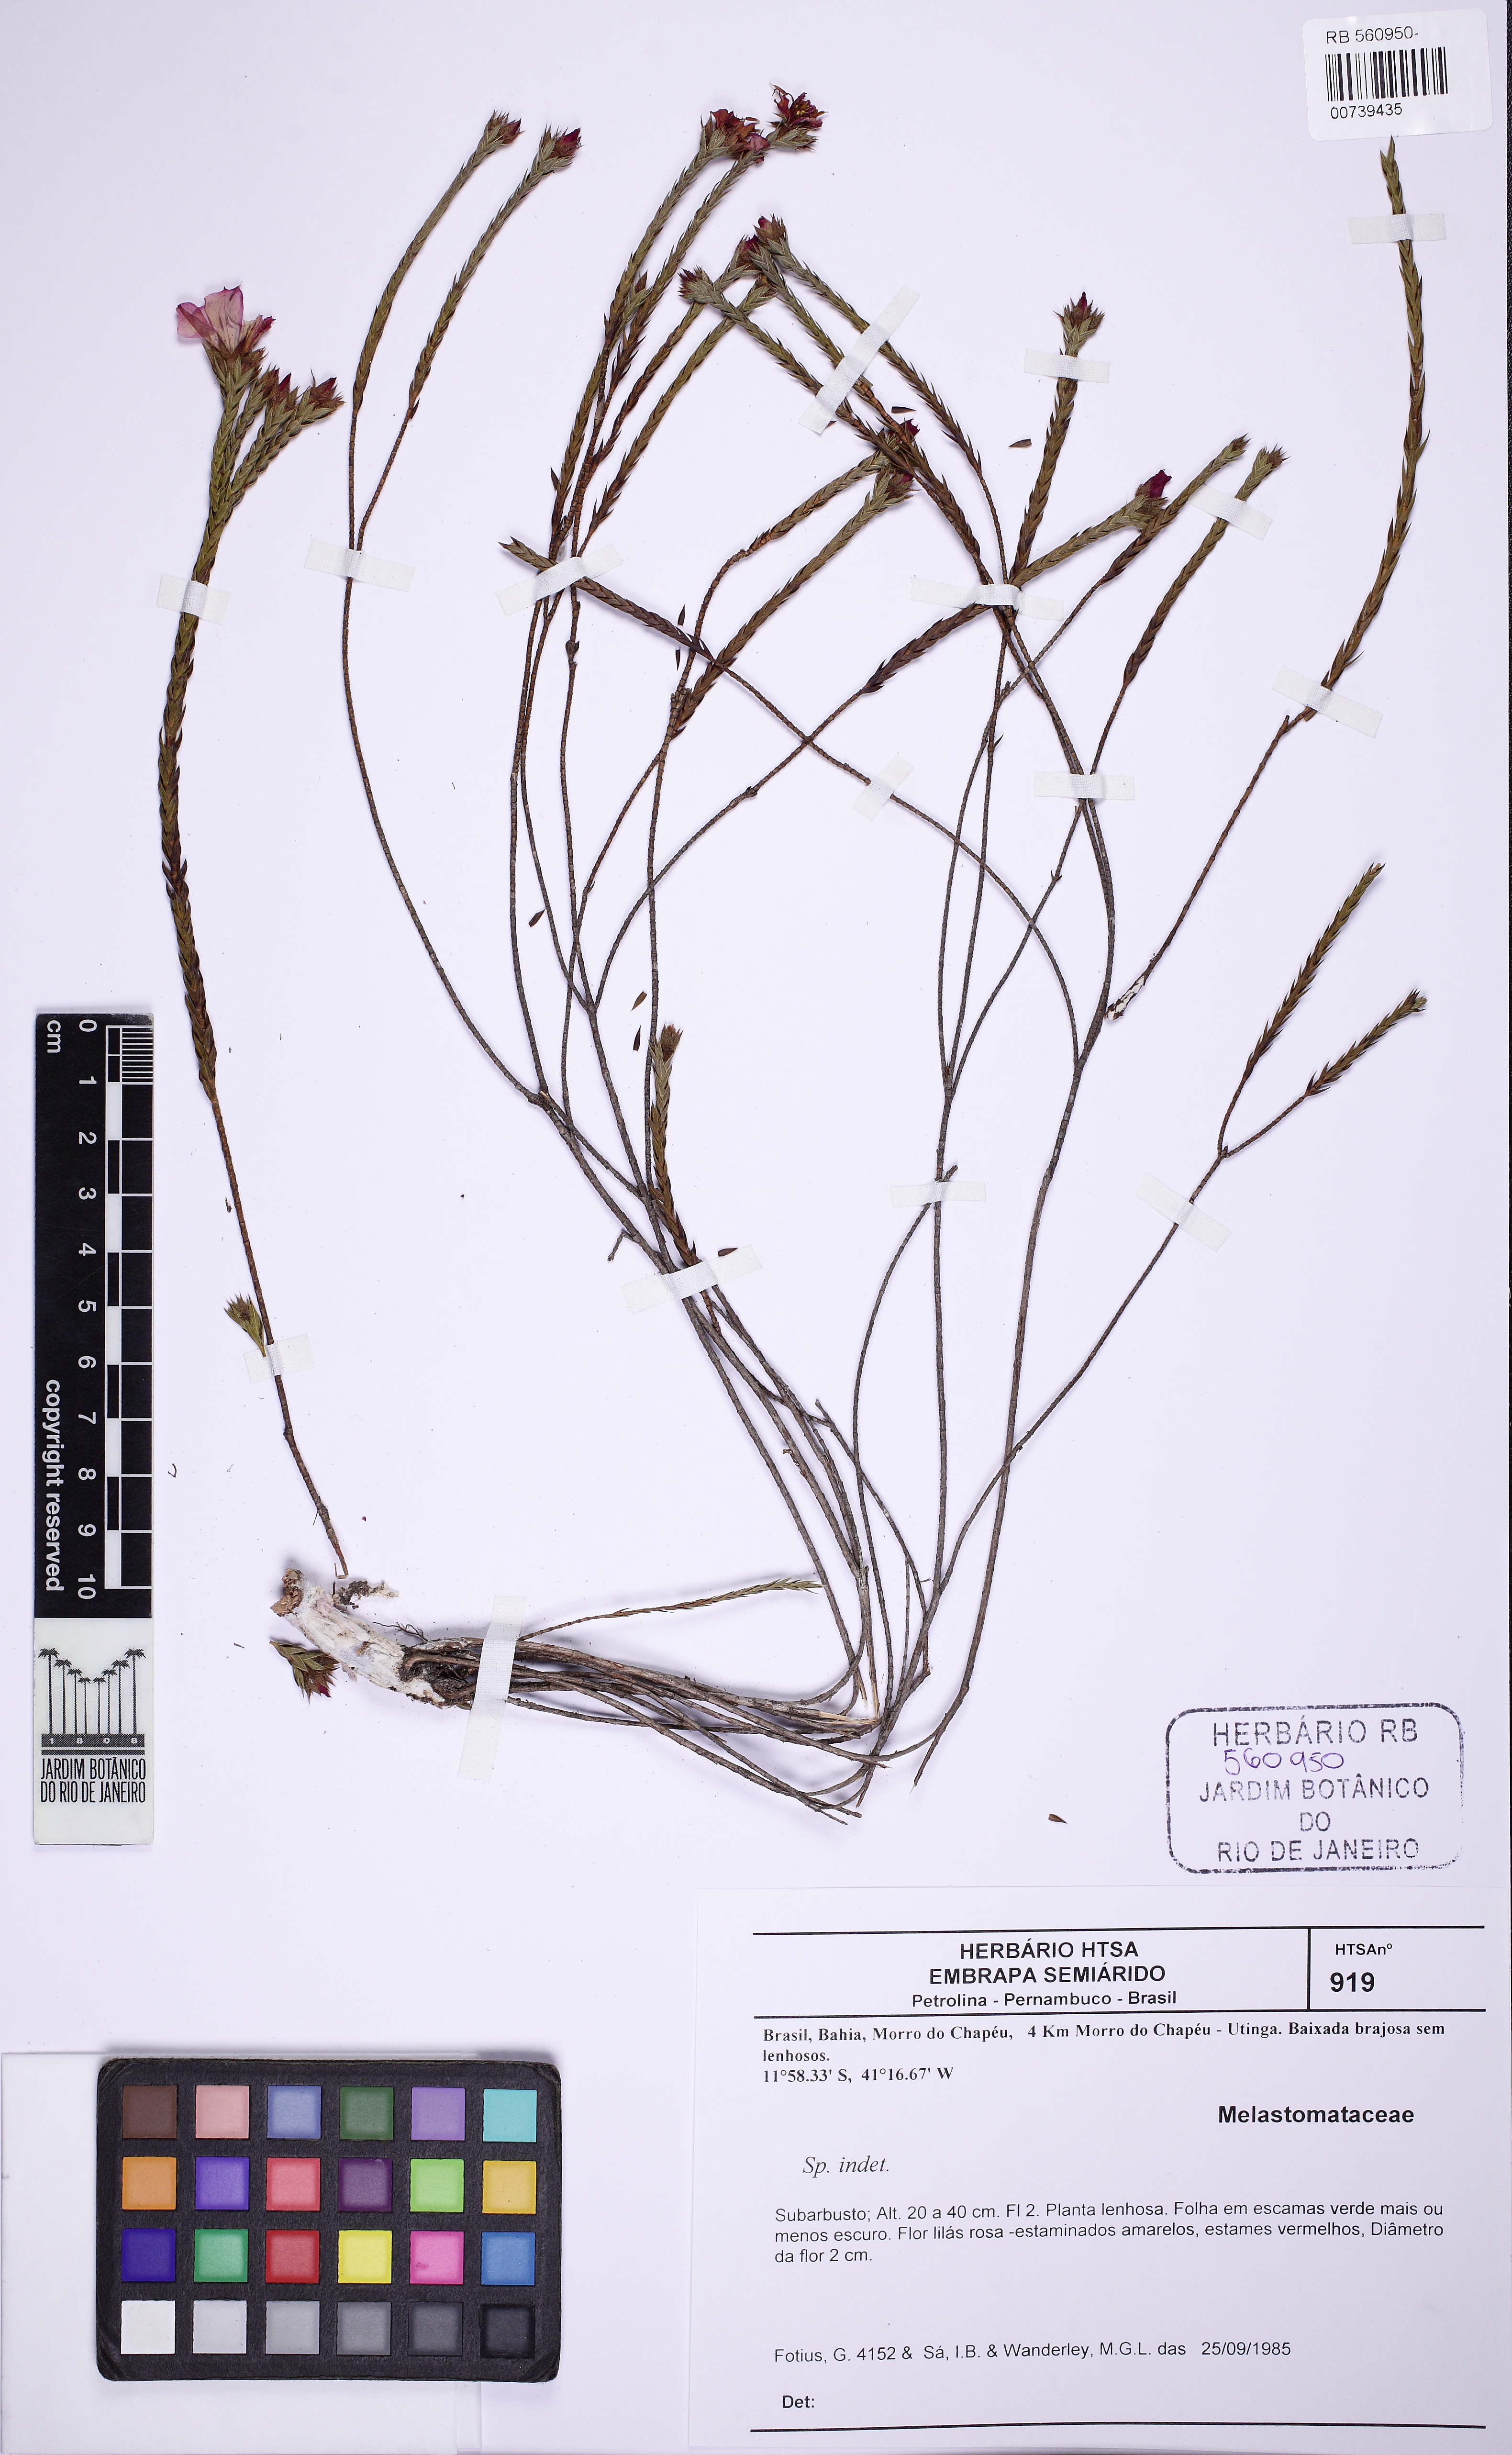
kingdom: Plantae
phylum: Tracheophyta
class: Magnoliopsida
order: Myrtales
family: Melastomataceae
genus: Microlicia
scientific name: Microlicia viminalis
